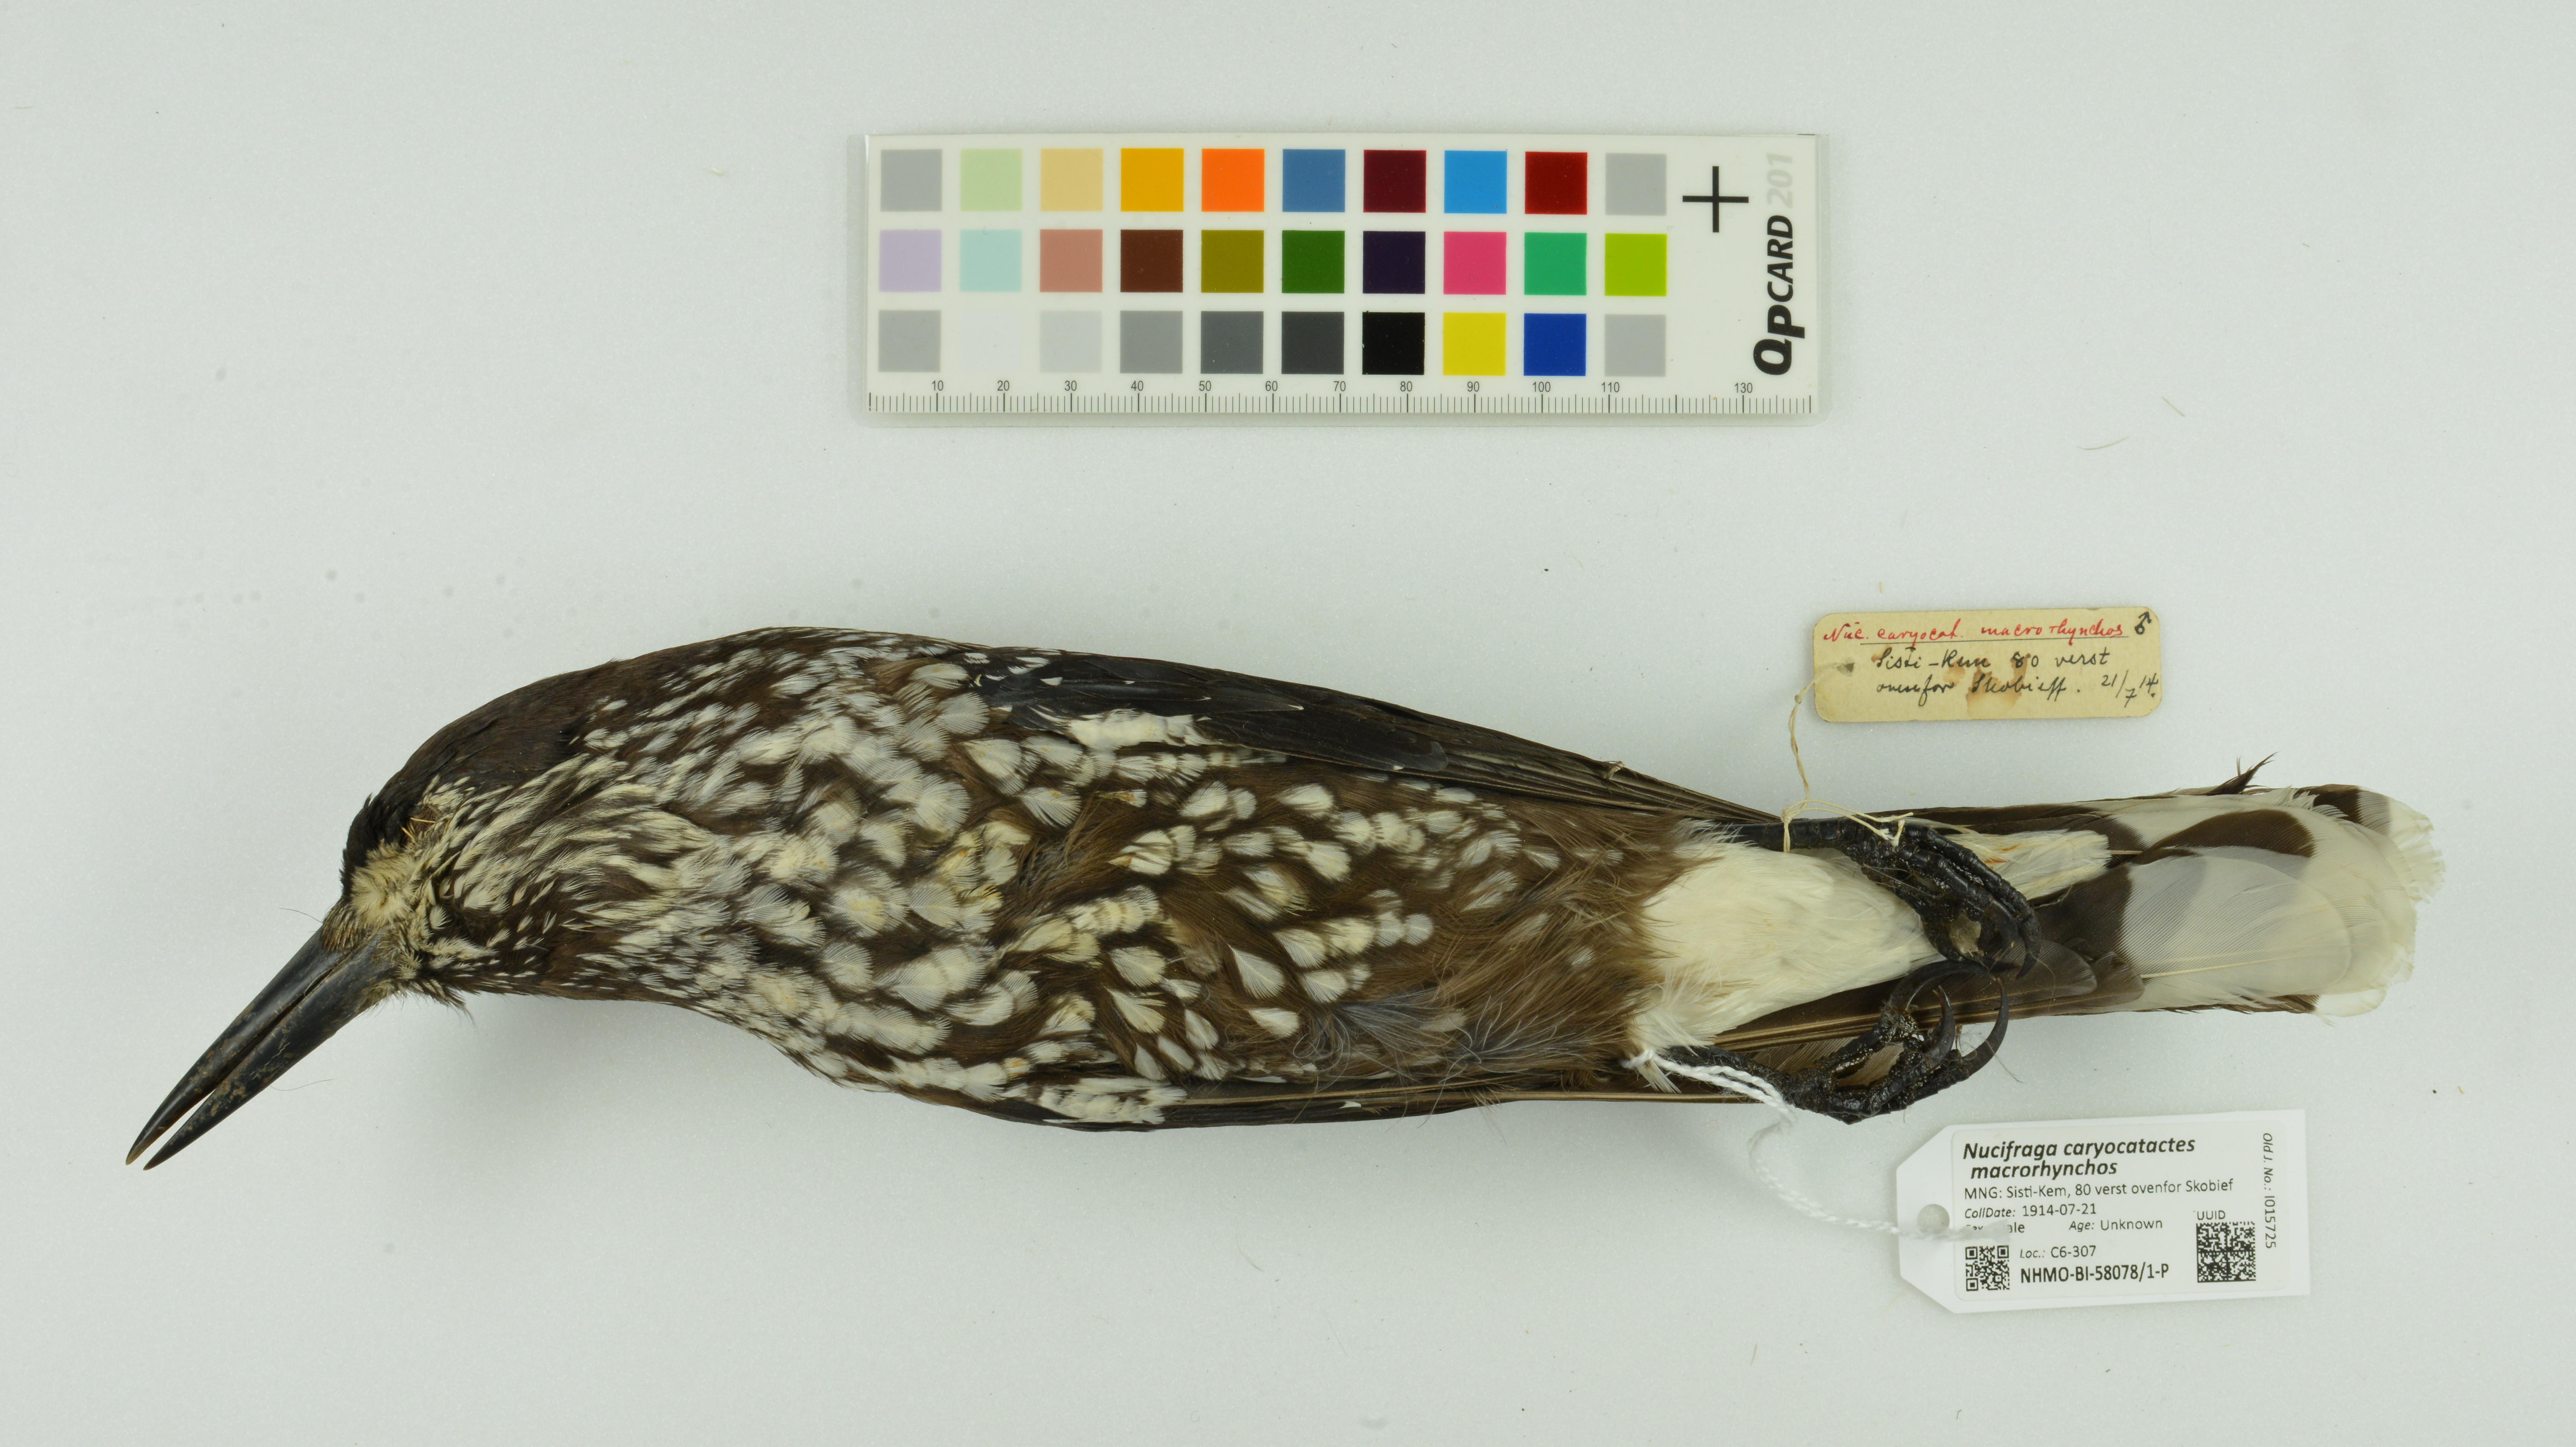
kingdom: Animalia
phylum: Chordata
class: Aves
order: Passeriformes
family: Corvidae
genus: Nucifraga
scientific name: Nucifraga caryocatactes
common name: Spotted nutcracker
